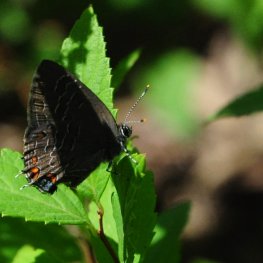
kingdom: Animalia
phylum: Arthropoda
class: Insecta
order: Lepidoptera
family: Lycaenidae
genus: Satyrium
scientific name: Satyrium liparops
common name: Striped Hairstreak
